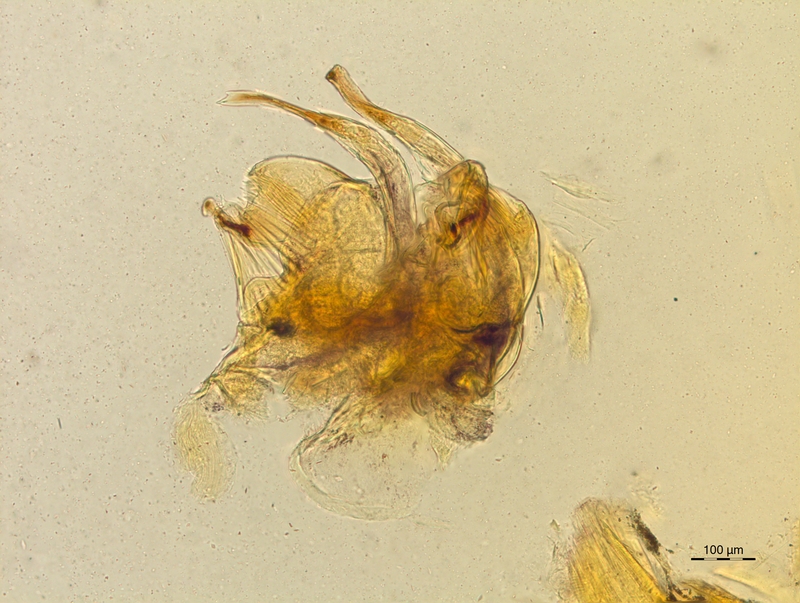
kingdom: Animalia
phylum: Arthropoda
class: Diplopoda
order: Chordeumatida
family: Craspedosomatidae
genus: Craspedosoma
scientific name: Craspedosoma rawlinsii
